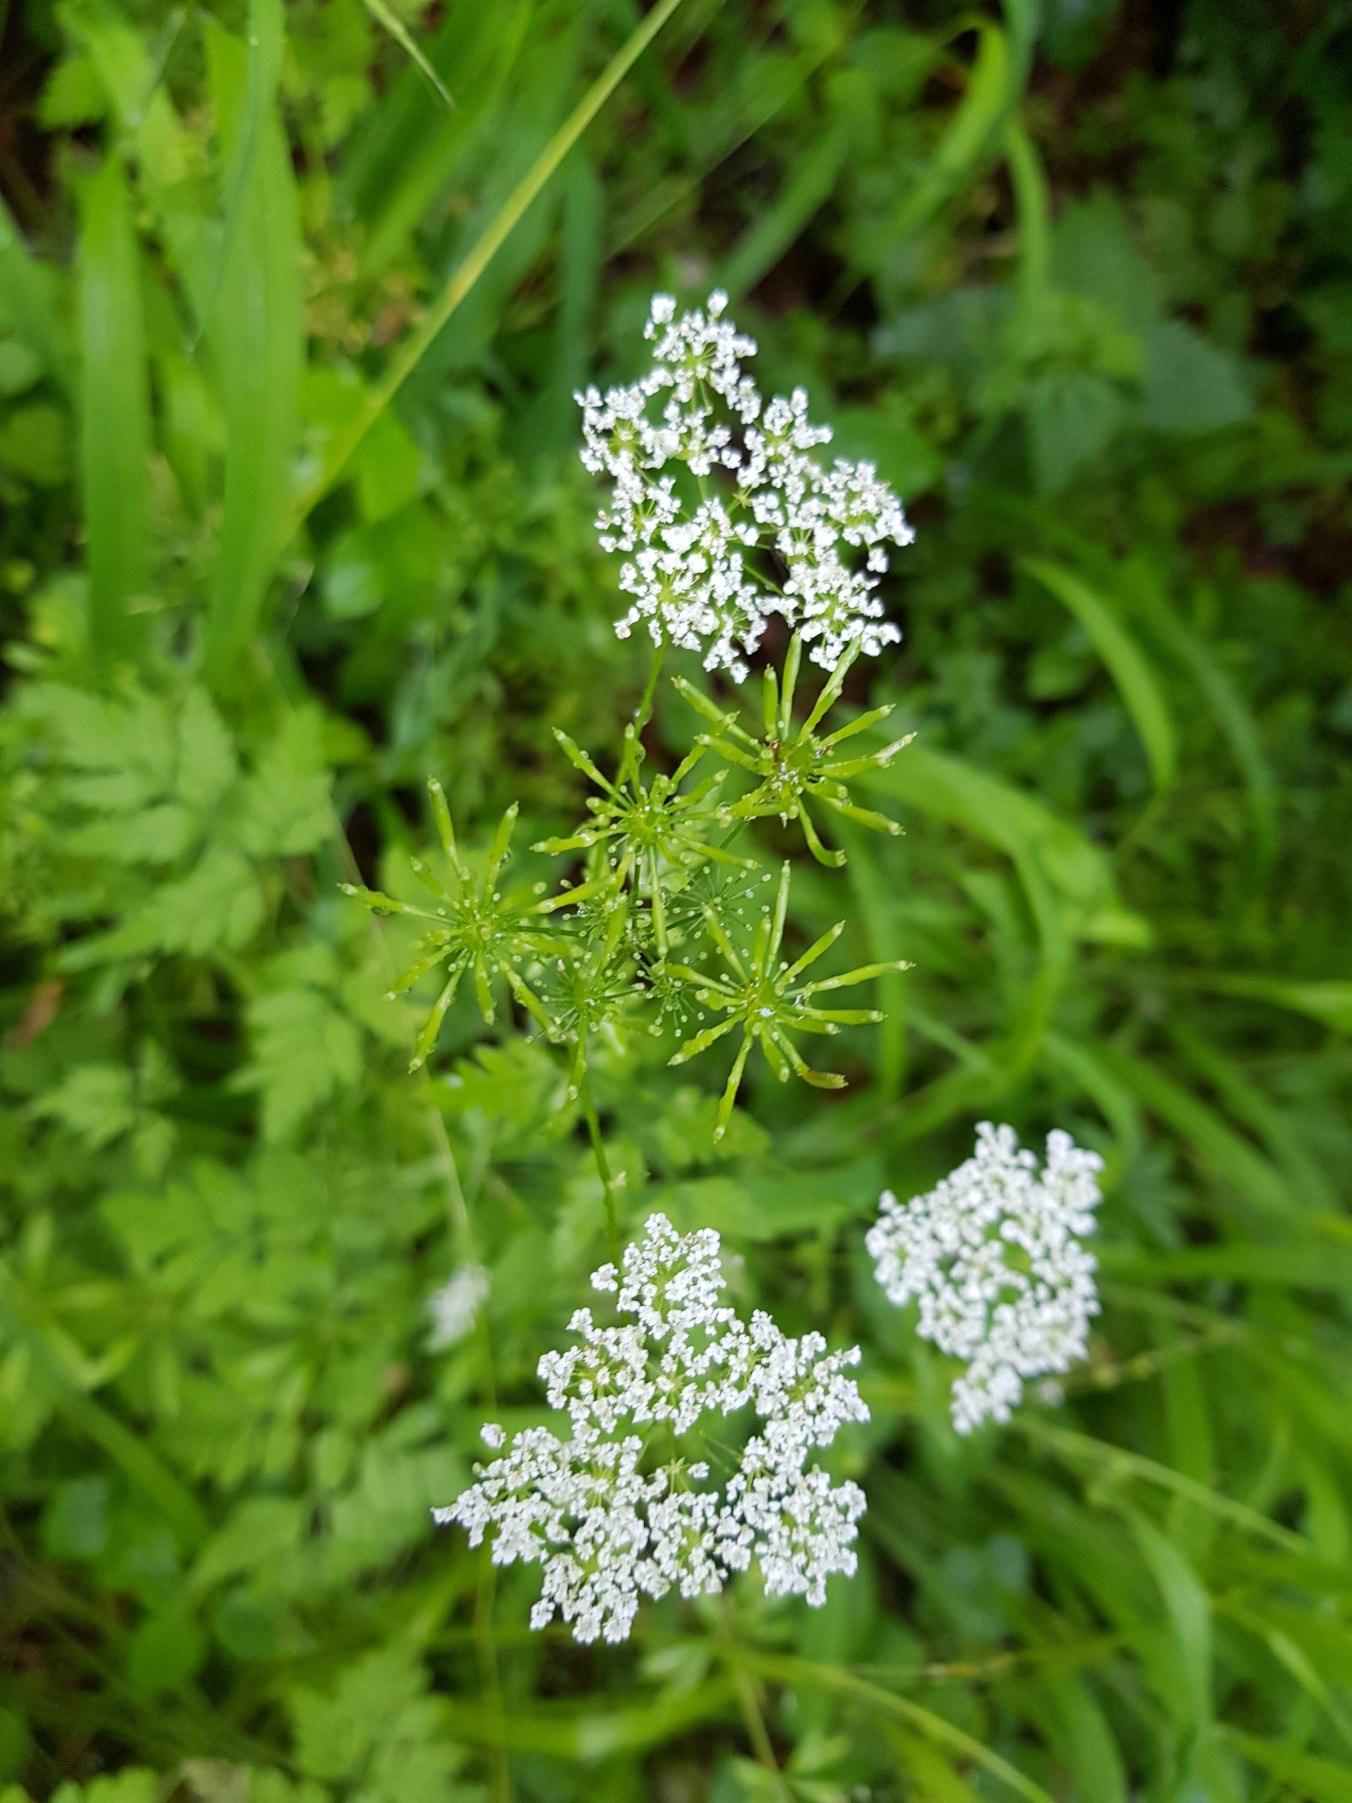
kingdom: Plantae
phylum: Tracheophyta
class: Magnoliopsida
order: Apiales
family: Apiaceae
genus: Chaerophyllum
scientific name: Chaerophyllum temulum
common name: Almindelig hulsvøb
